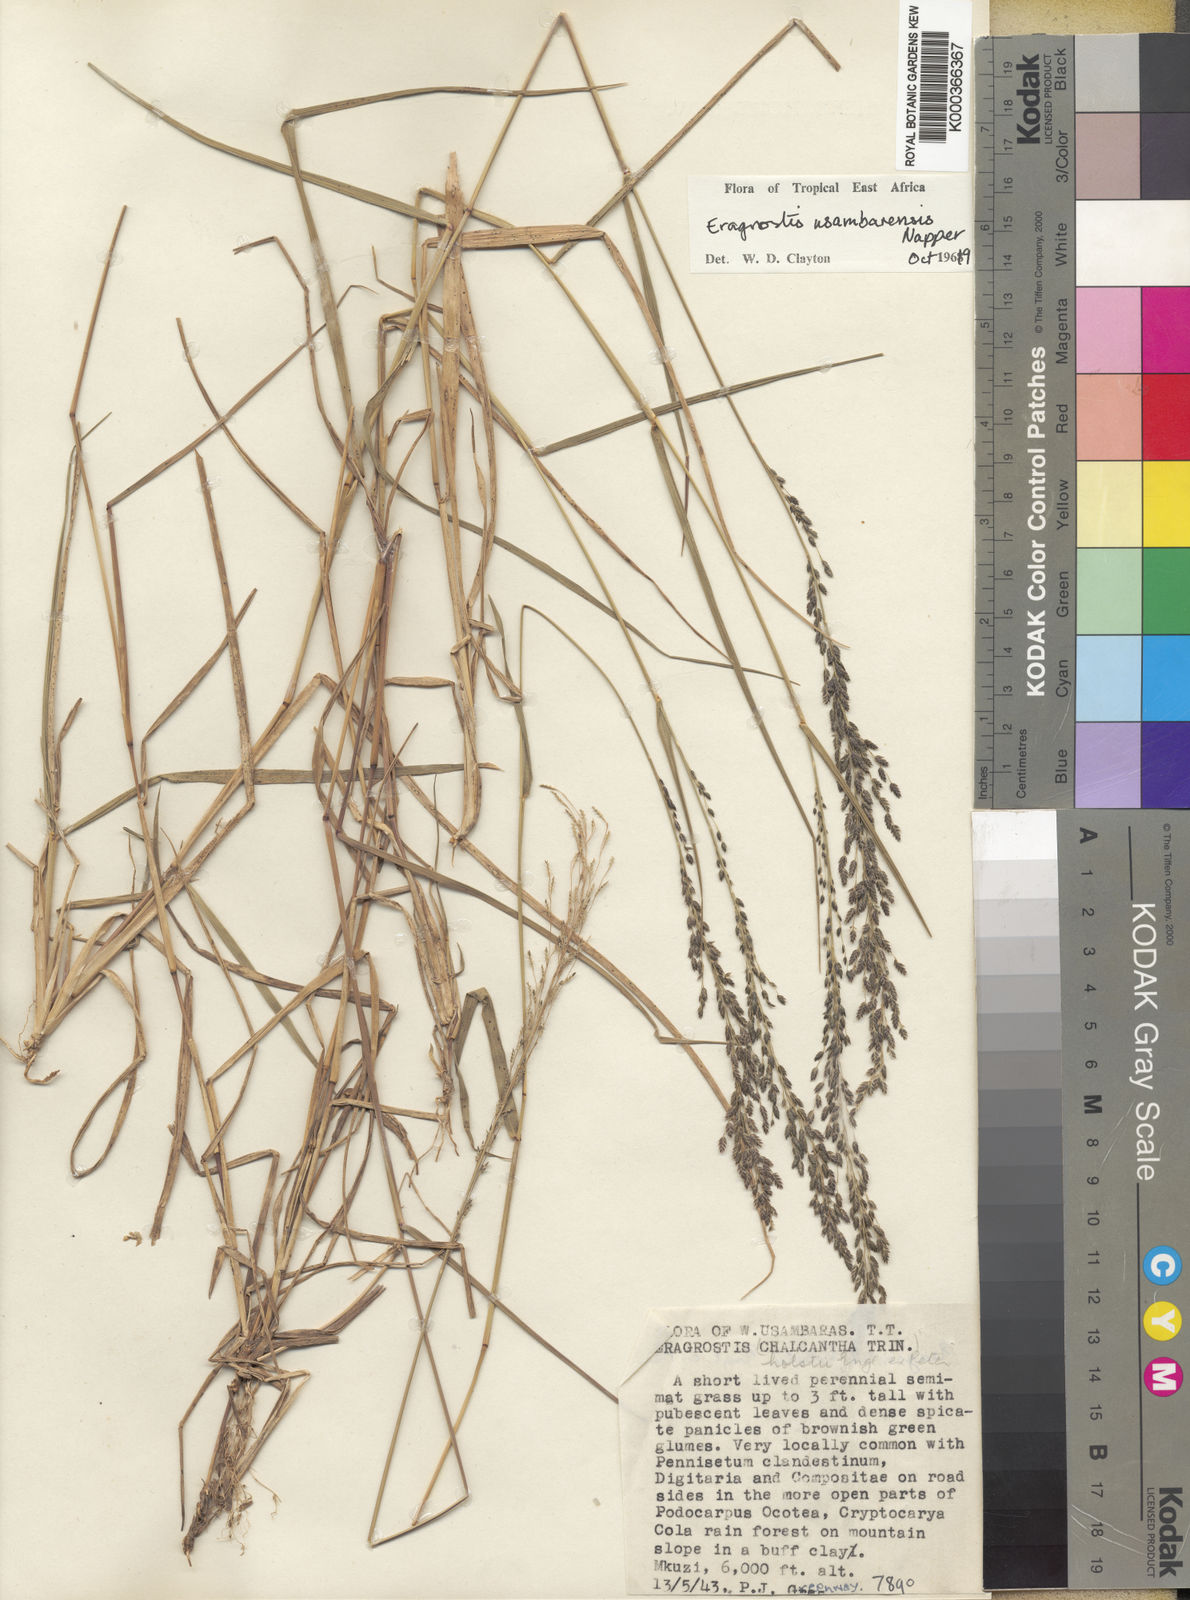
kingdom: Plantae
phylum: Tracheophyta
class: Liliopsida
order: Poales
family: Poaceae
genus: Eragrostis
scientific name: Eragrostis usambarensis
